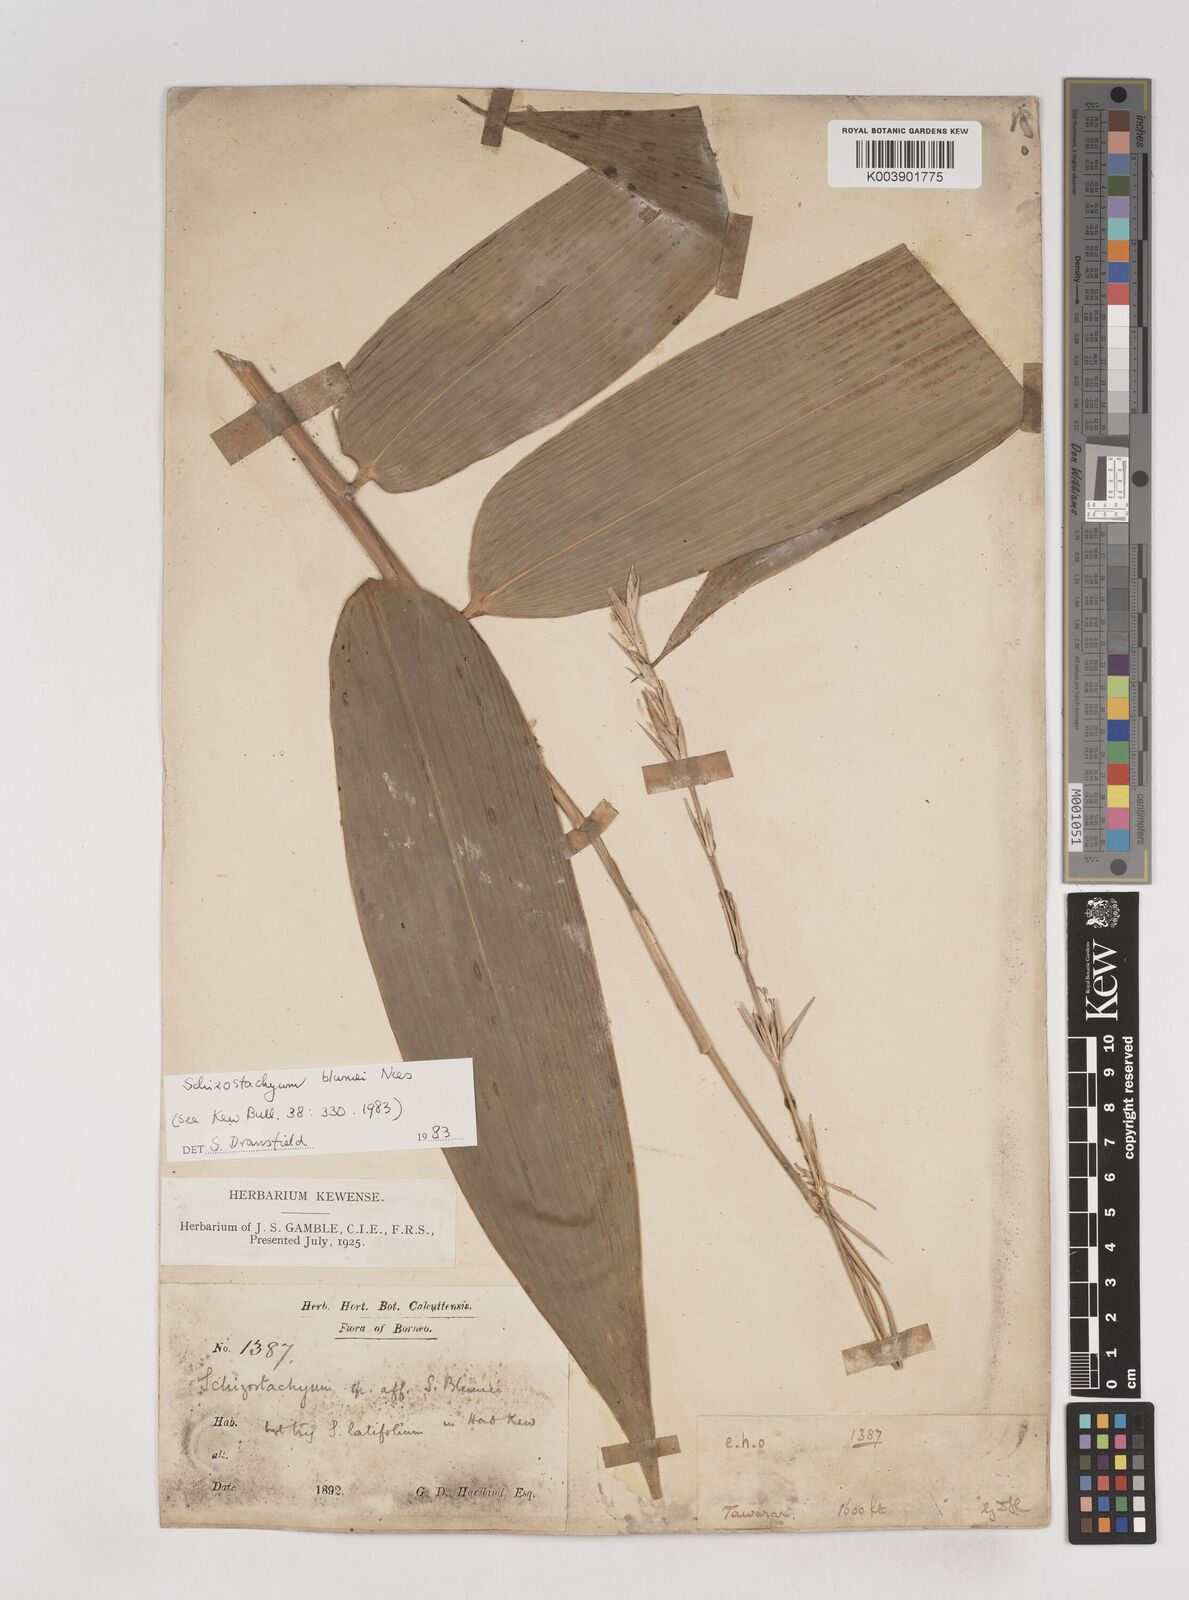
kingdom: Plantae
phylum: Tracheophyta
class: Liliopsida
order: Poales
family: Poaceae
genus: Schizostachyum
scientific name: Schizostachyum blumei
